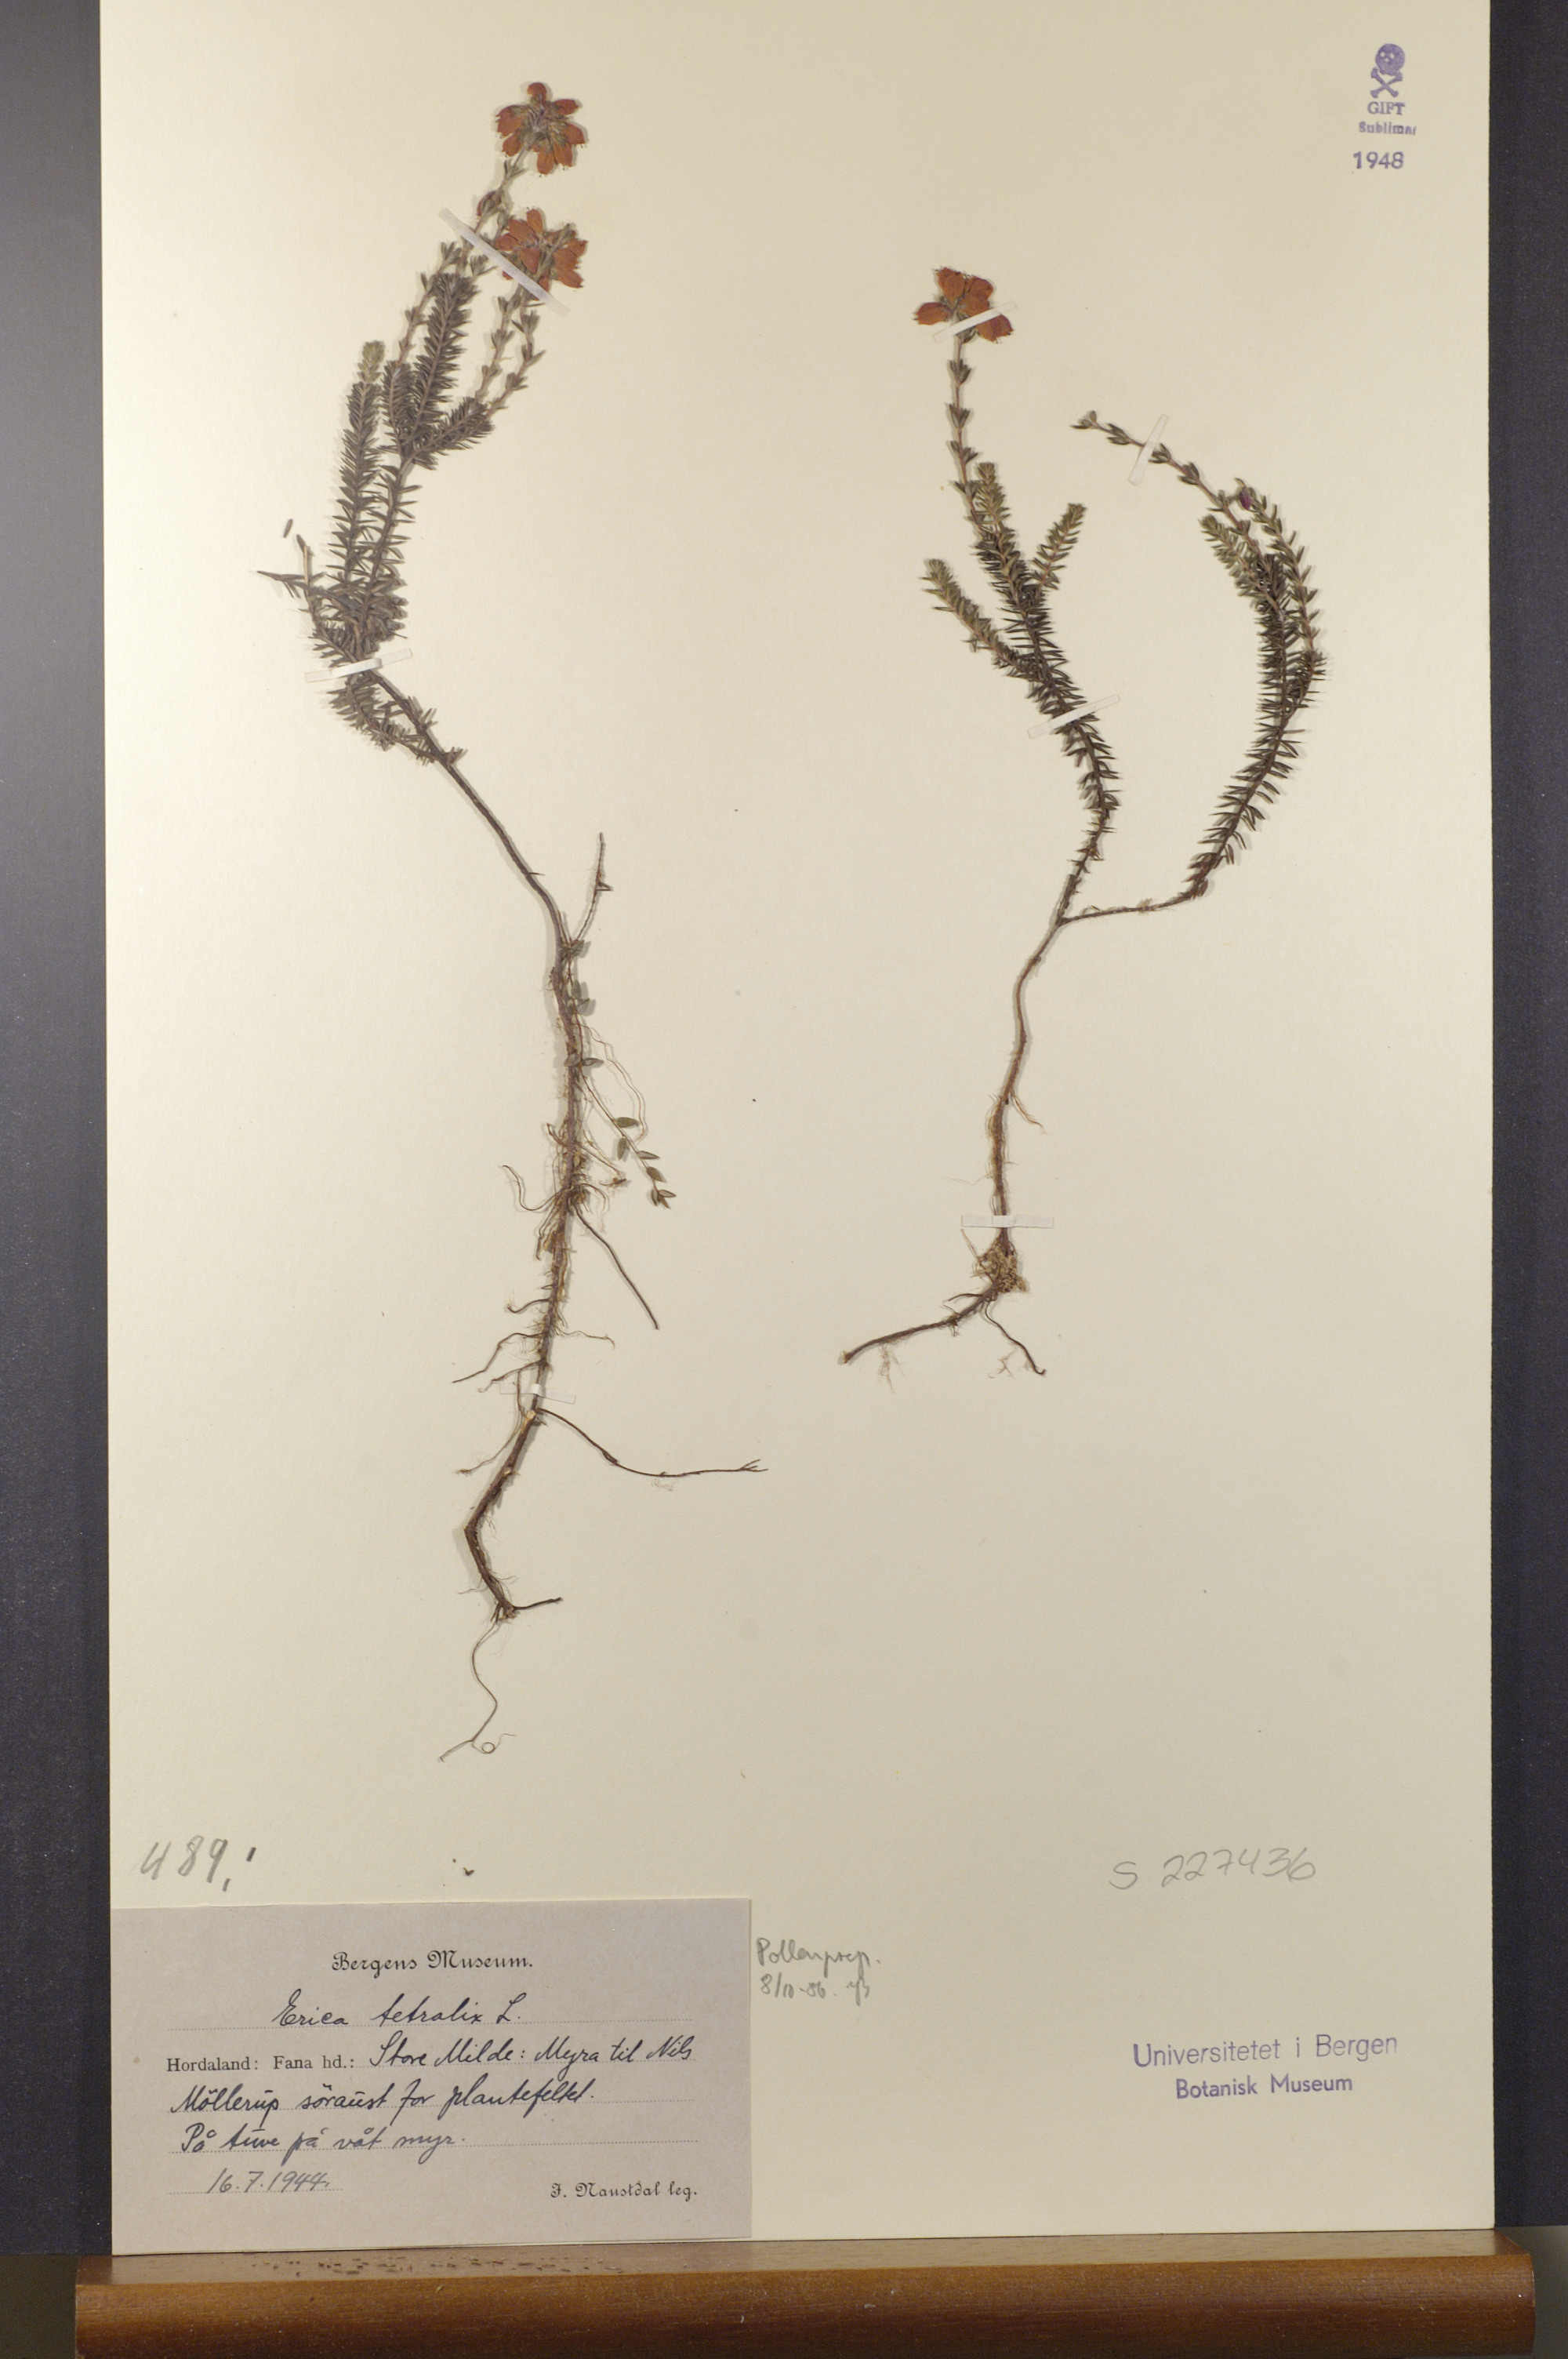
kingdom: Plantae
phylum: Tracheophyta
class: Magnoliopsida
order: Ericales
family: Ericaceae
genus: Erica
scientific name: Erica tetralix
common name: Cross-leaved heath
